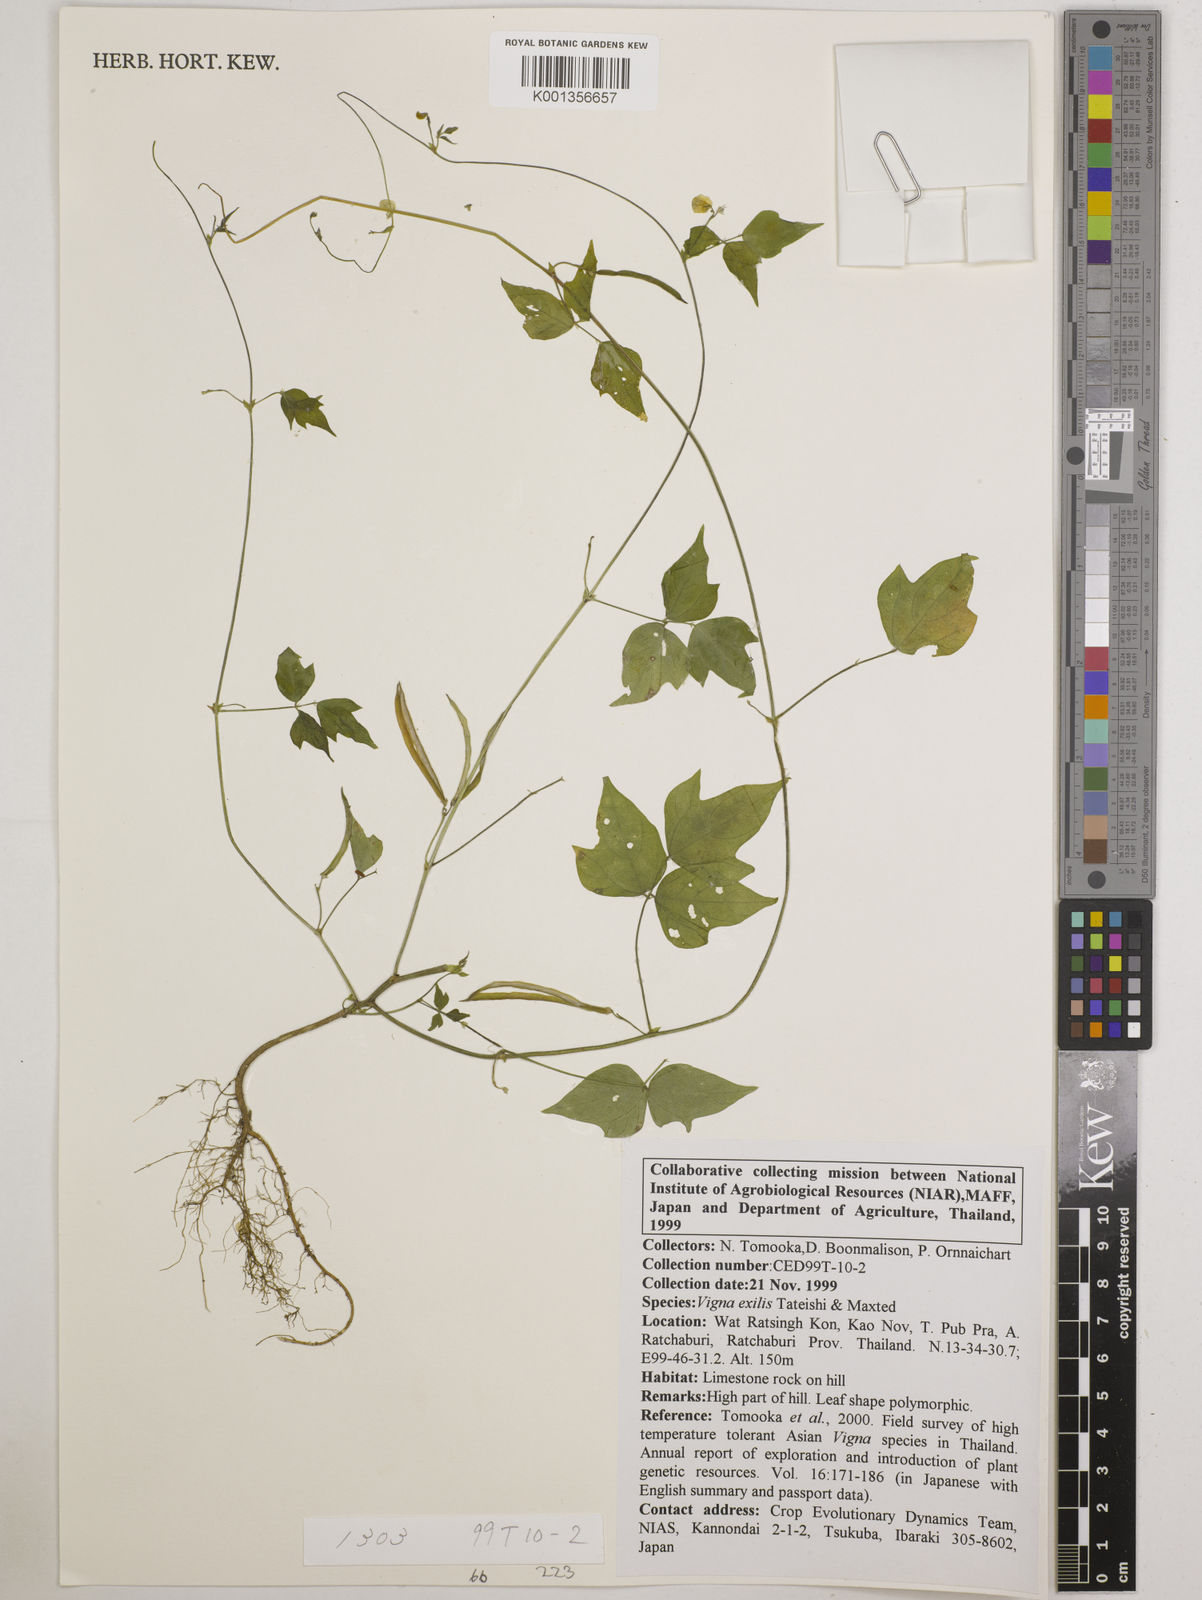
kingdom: Plantae
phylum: Tracheophyta
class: Magnoliopsida
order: Fabales
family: Fabaceae
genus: Vigna
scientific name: Vigna
